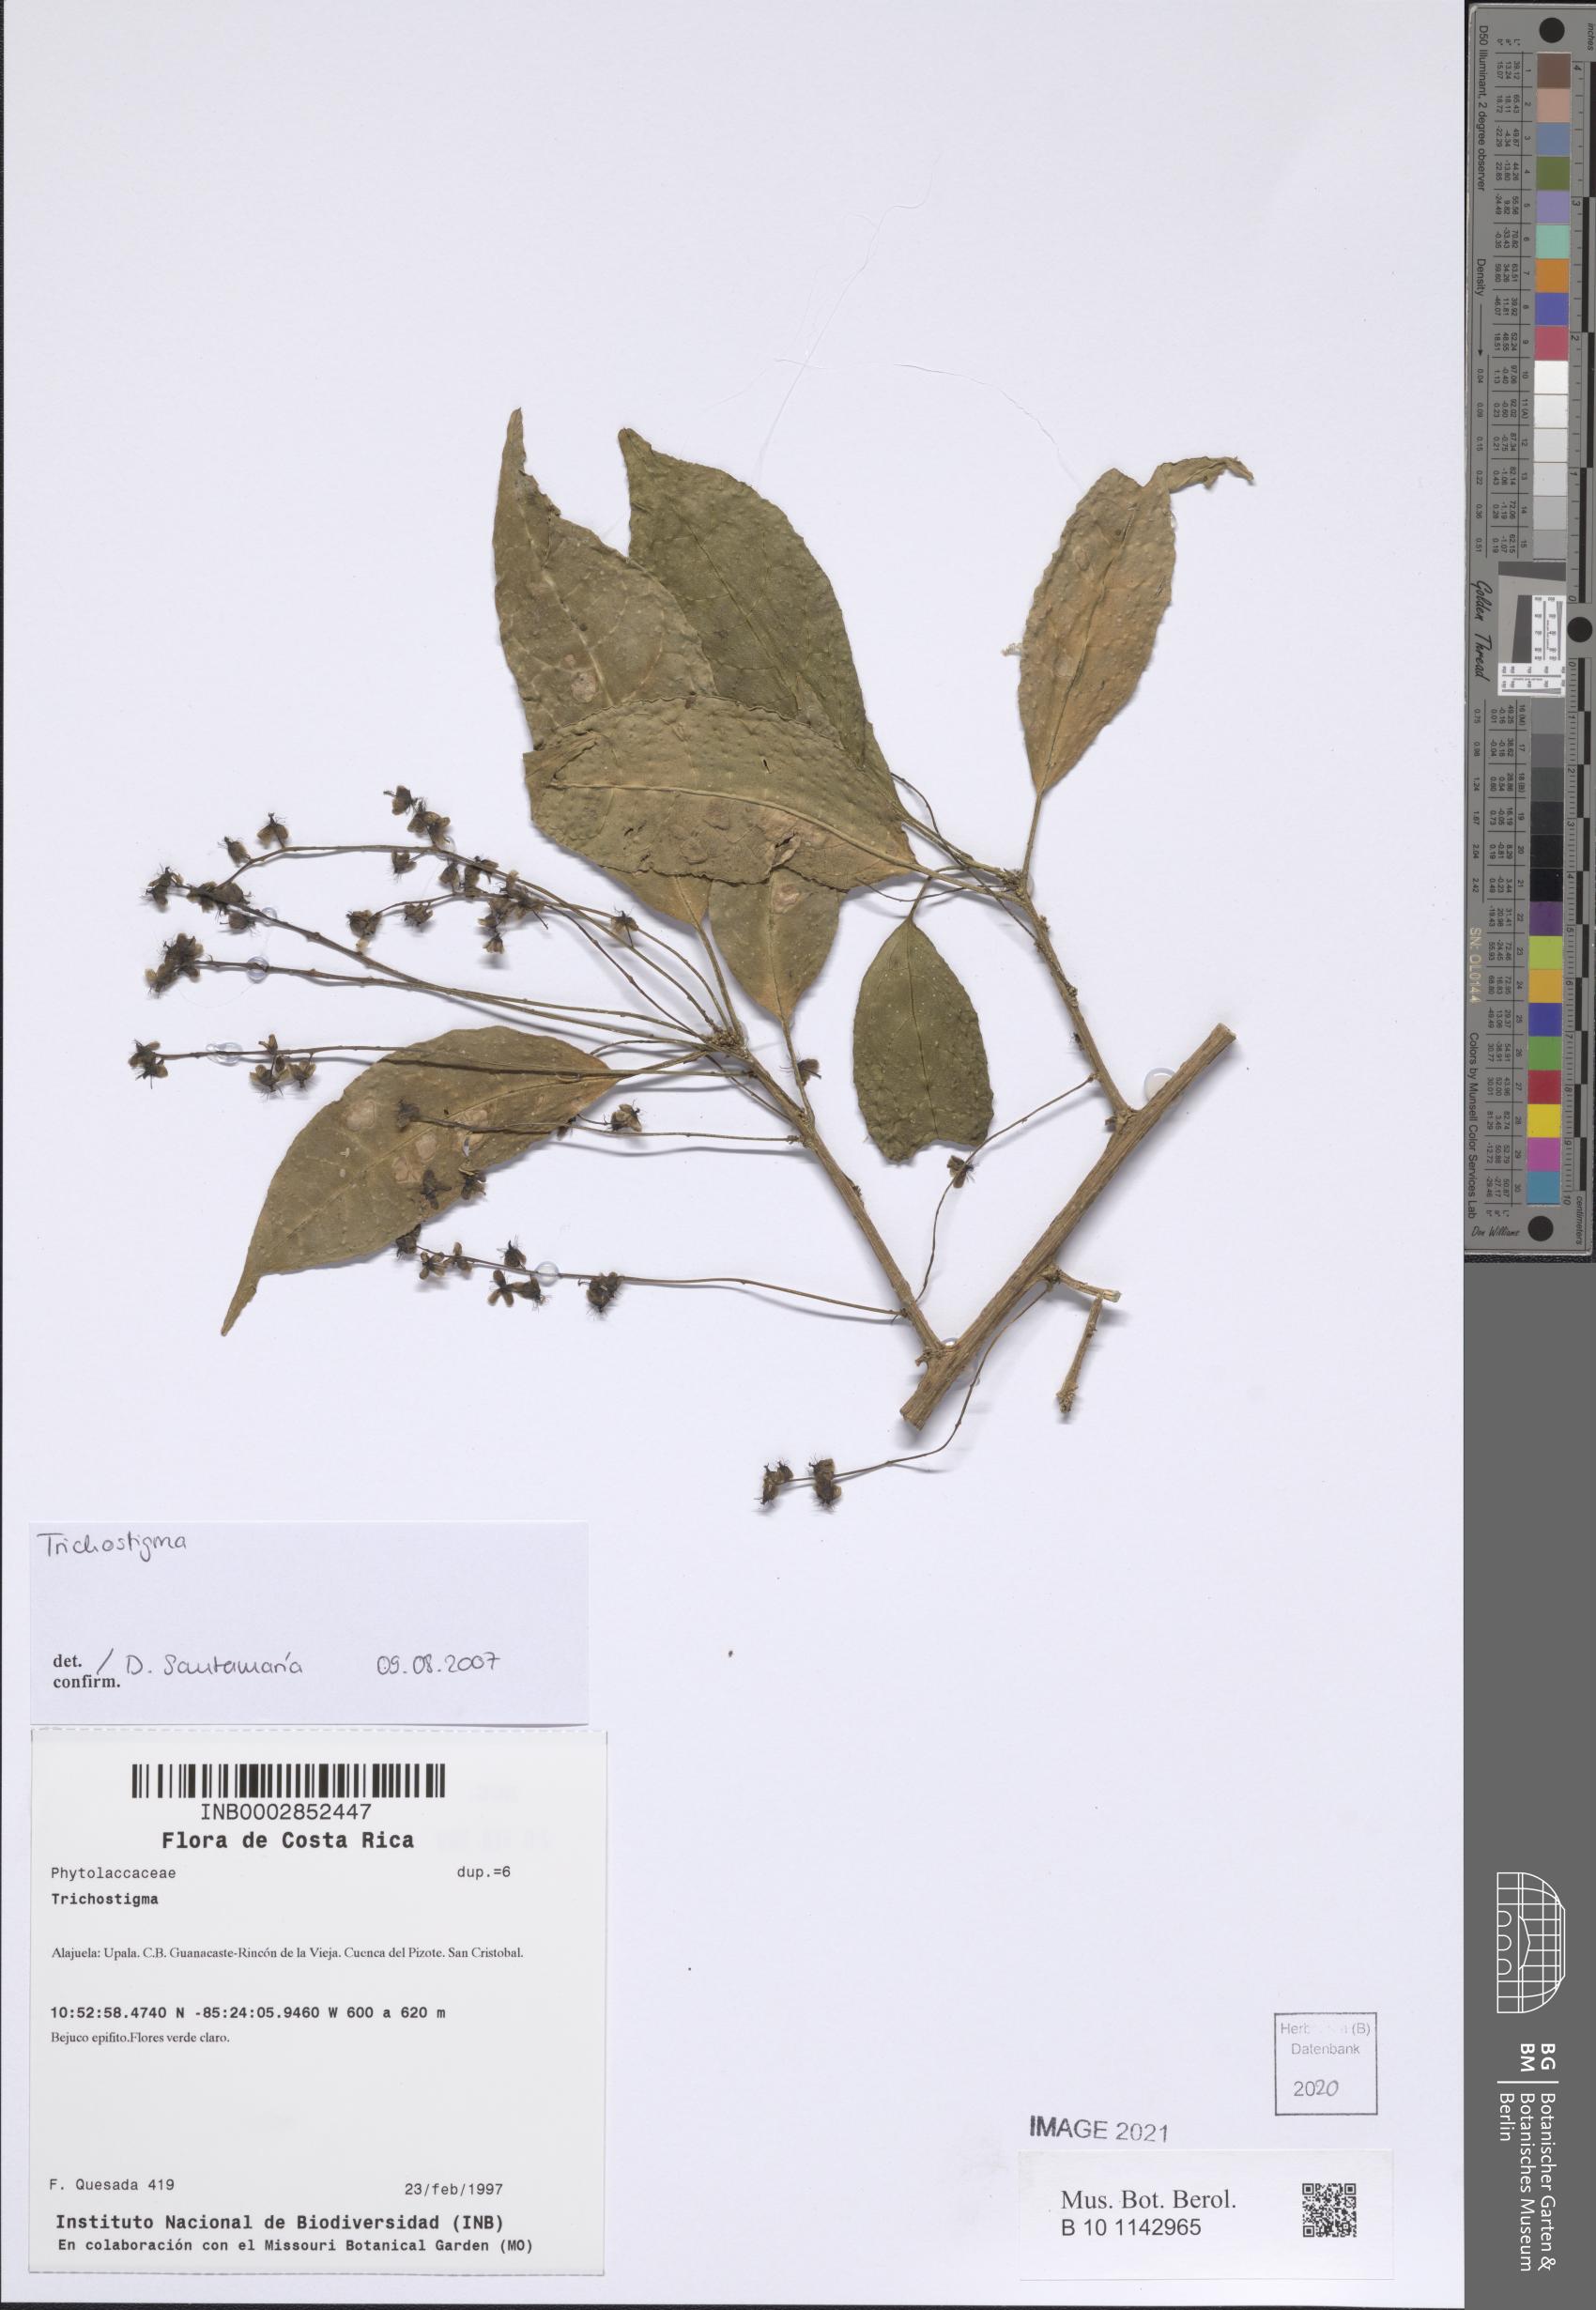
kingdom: Plantae
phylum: Tracheophyta
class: Magnoliopsida
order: Caryophyllales
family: Phytolaccaceae
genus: Trichostigma
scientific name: Trichostigma
